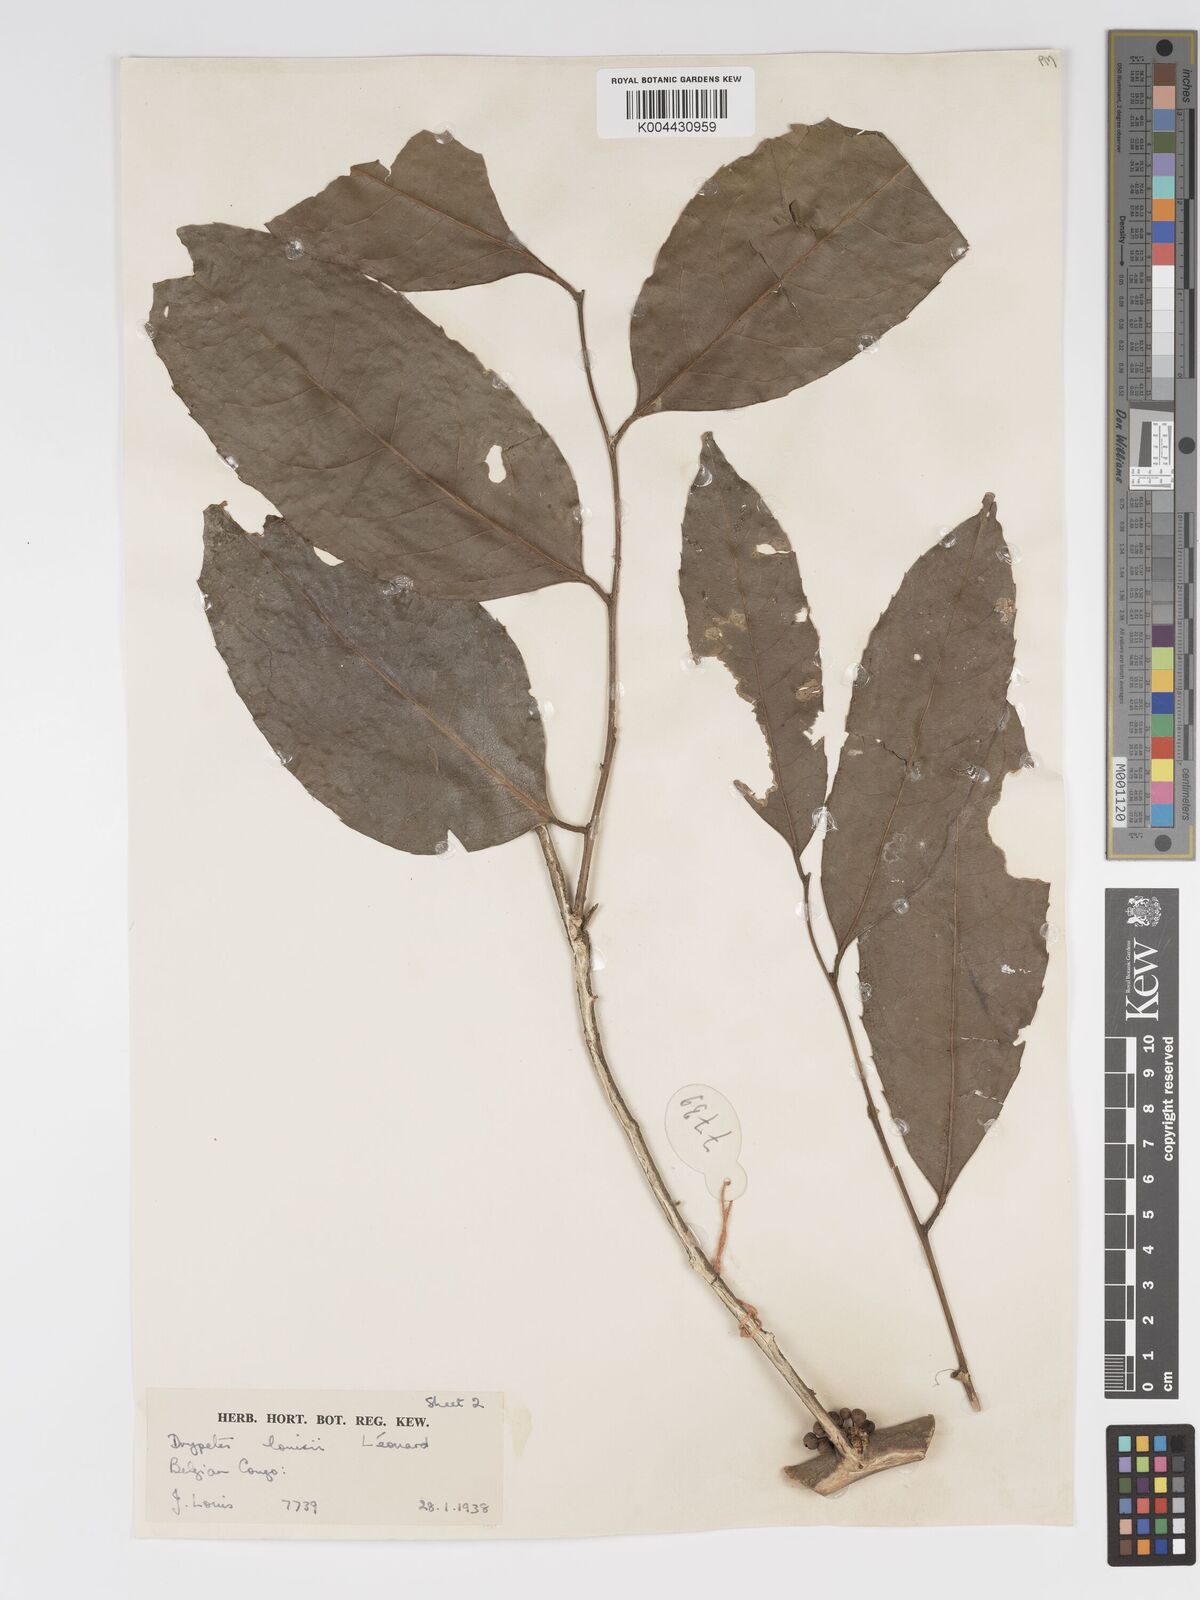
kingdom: Plantae
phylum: Tracheophyta
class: Magnoliopsida
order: Malpighiales
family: Putranjivaceae
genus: Drypetes
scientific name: Drypetes
